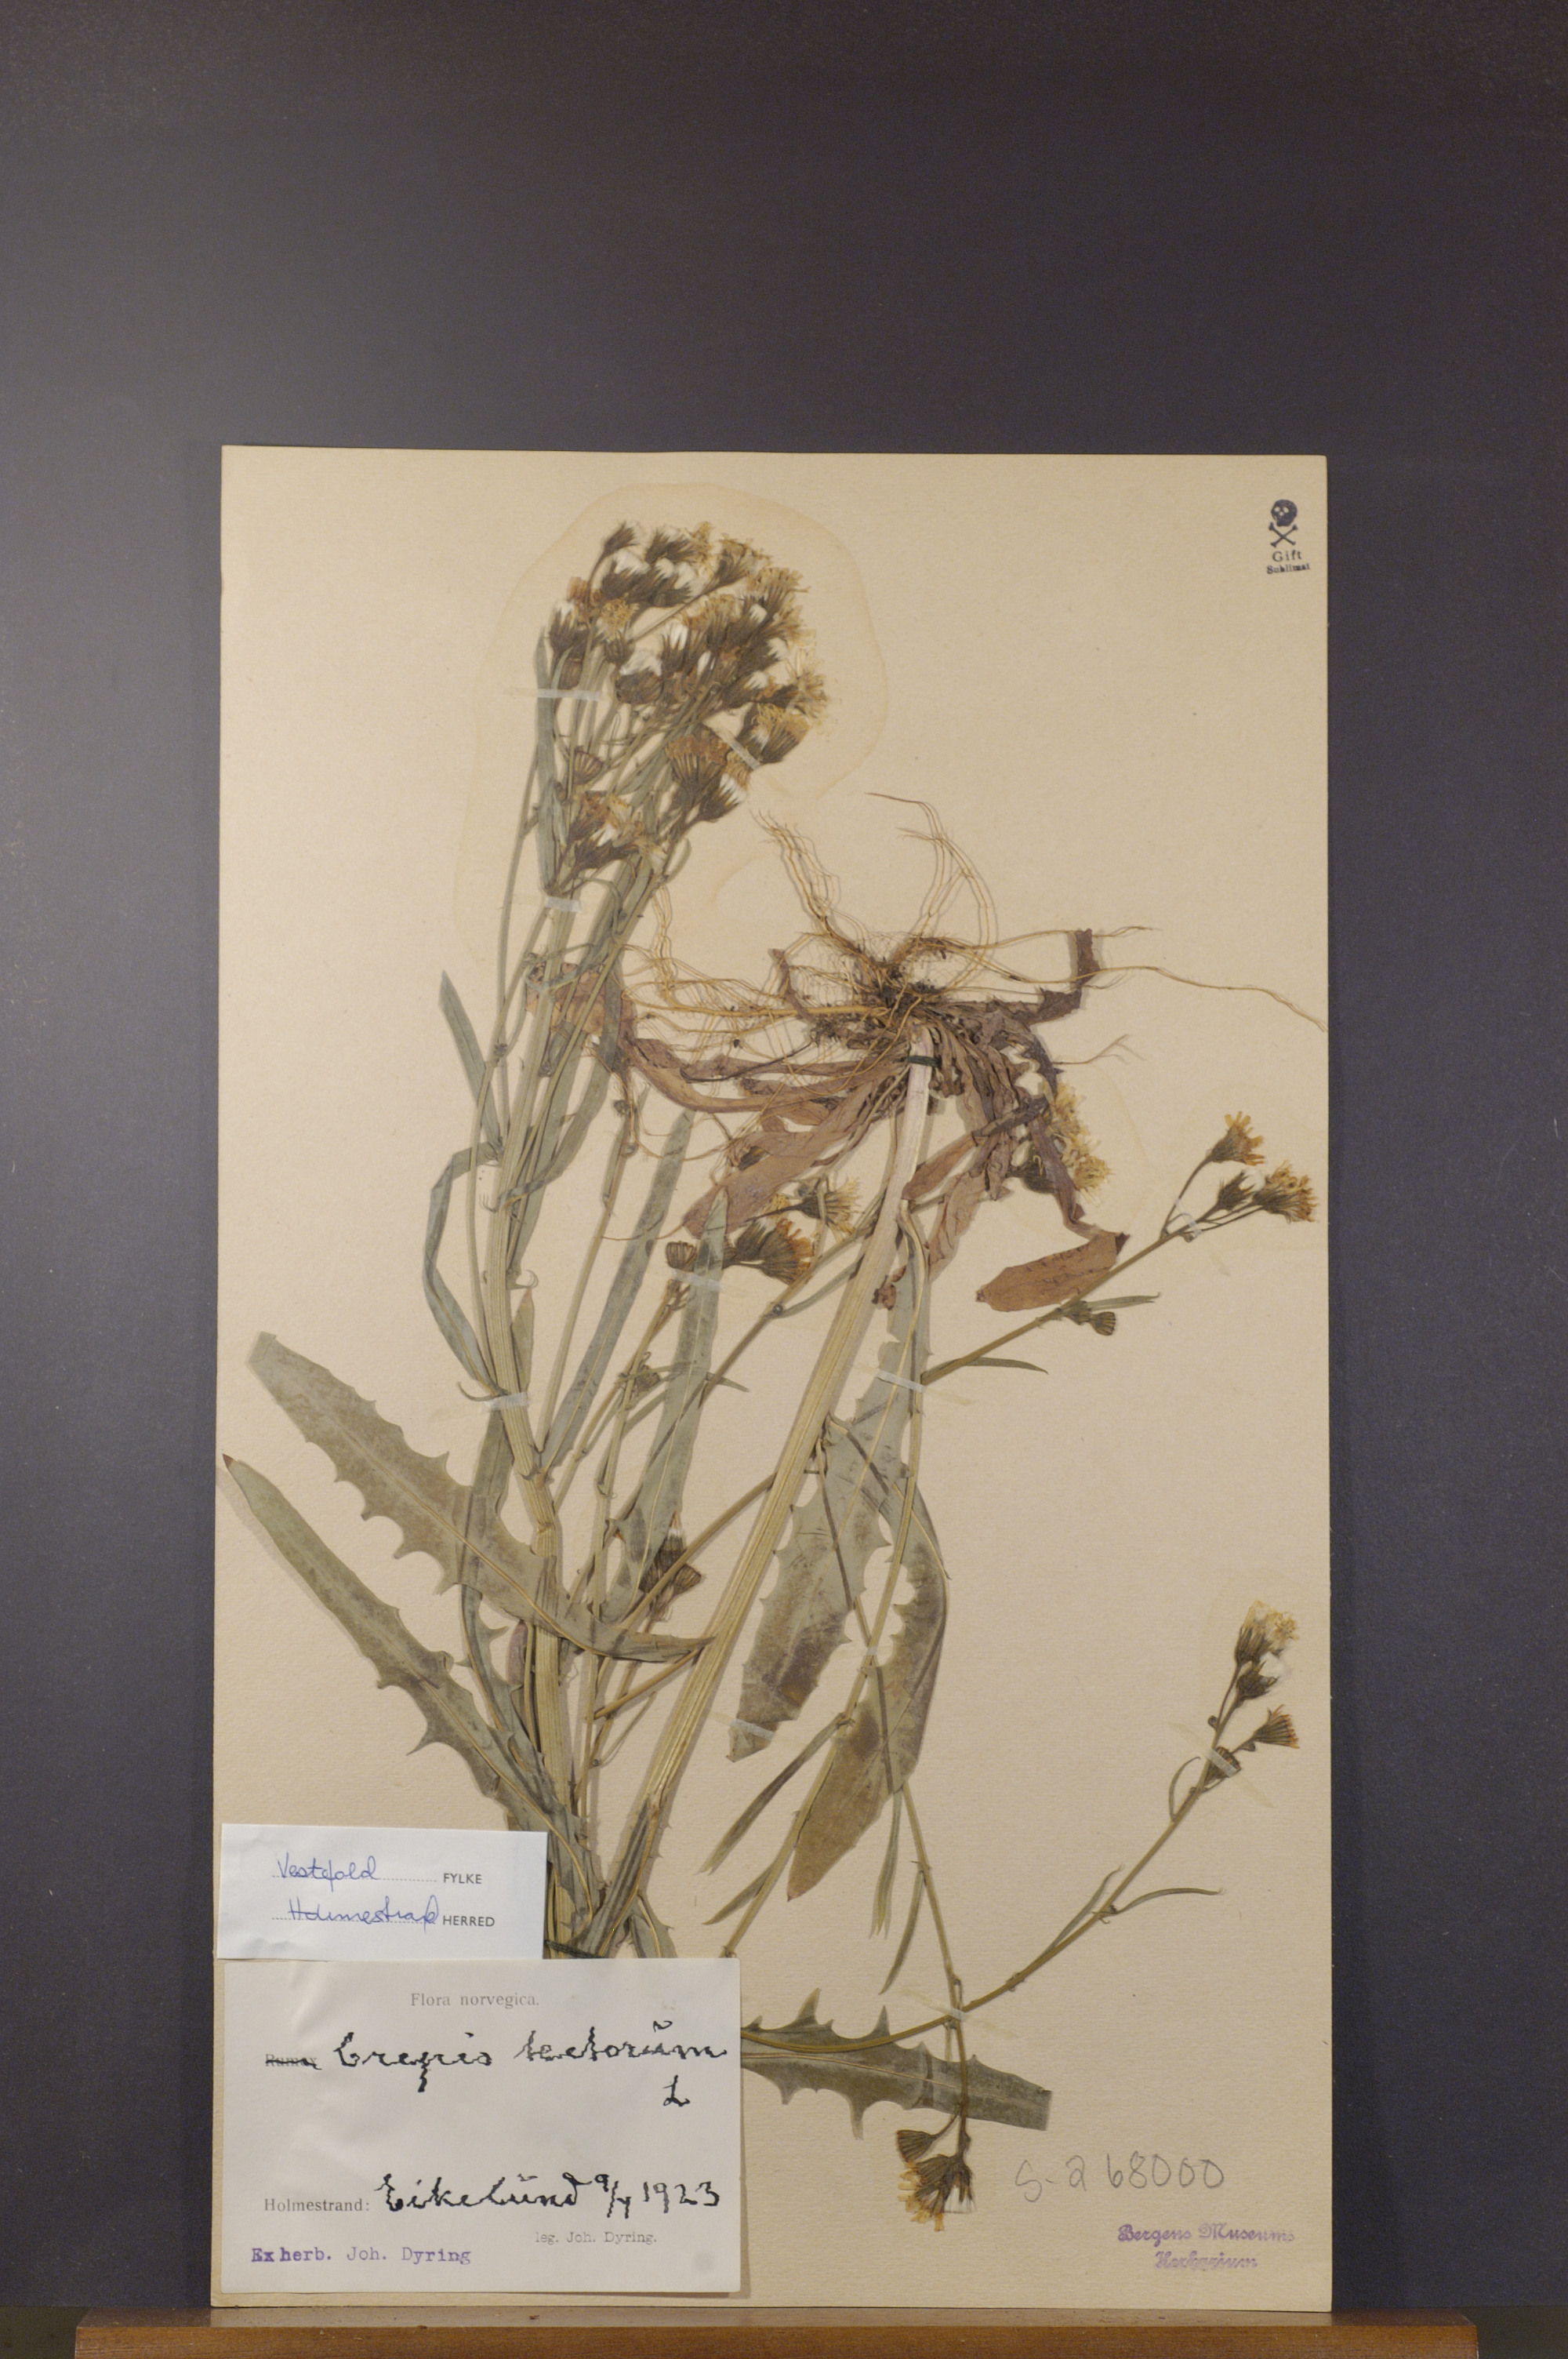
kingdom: Plantae
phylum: Tracheophyta
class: Magnoliopsida
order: Asterales
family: Asteraceae
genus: Crepis
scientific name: Crepis tectorum
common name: Narrow-leaved hawk's-beard
